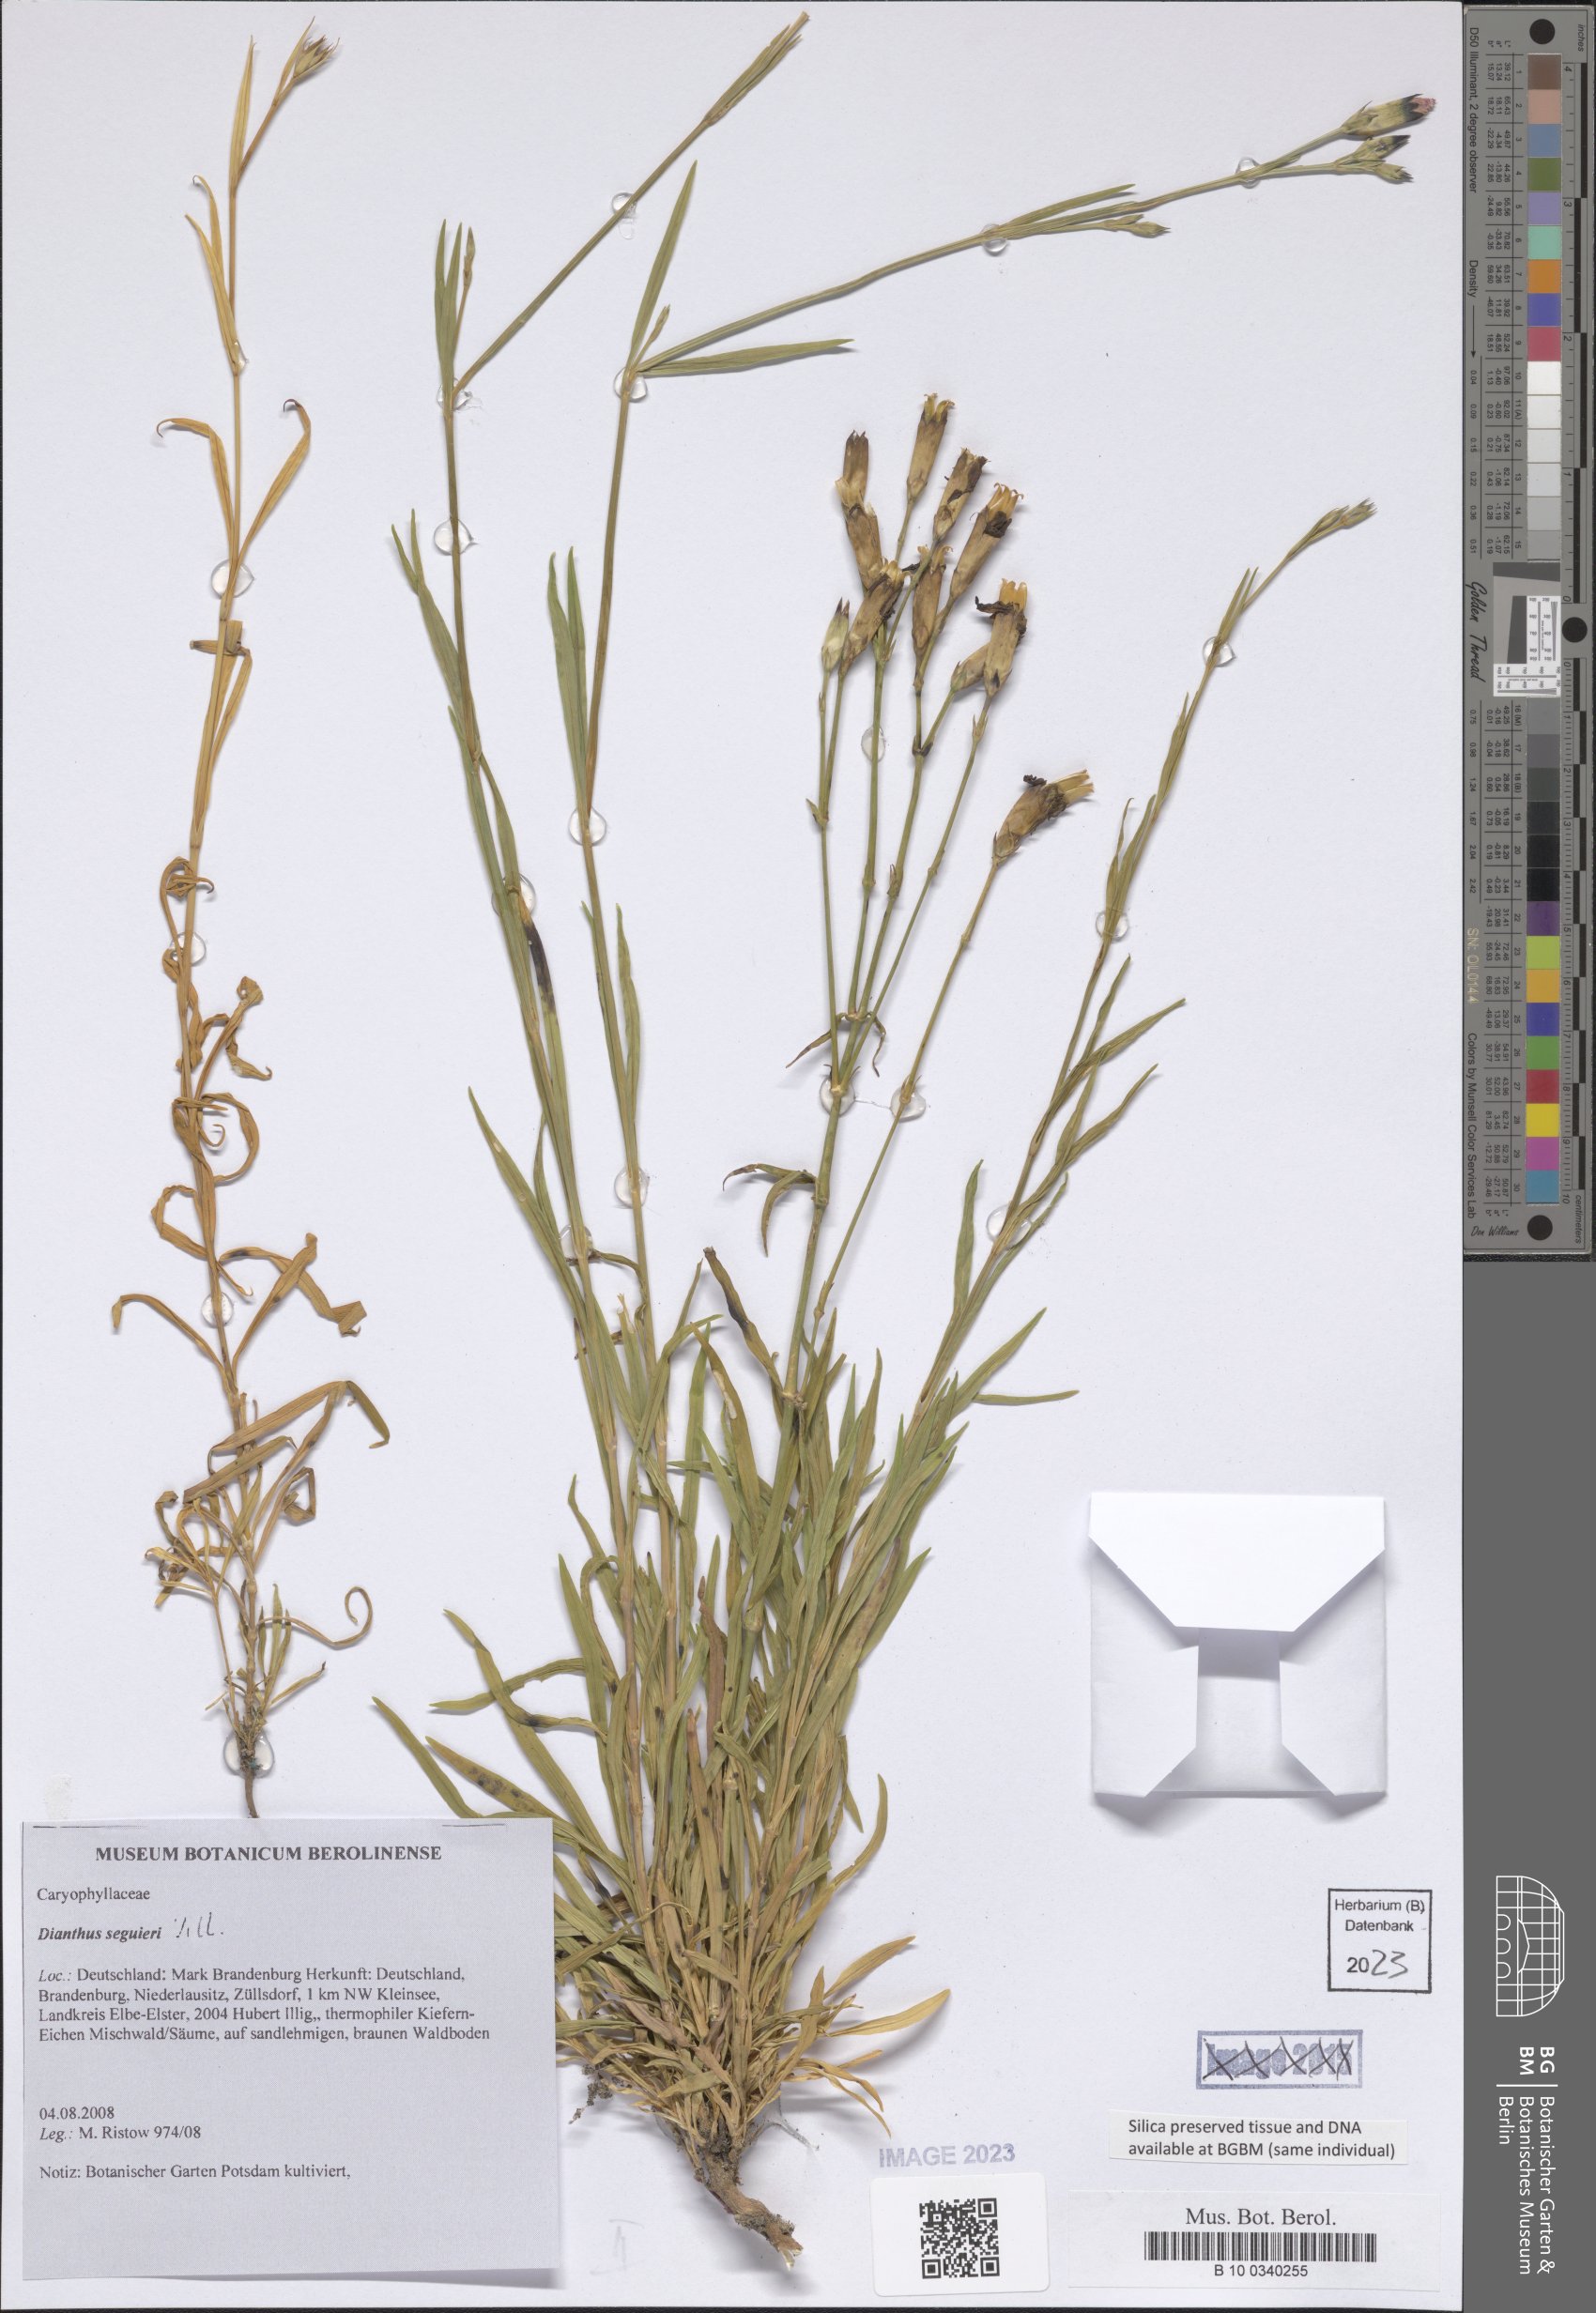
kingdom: Plantae
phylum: Tracheophyta
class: Magnoliopsida
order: Caryophyllales
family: Caryophyllaceae
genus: Dianthus
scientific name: Dianthus seguieri
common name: Ragged pink
